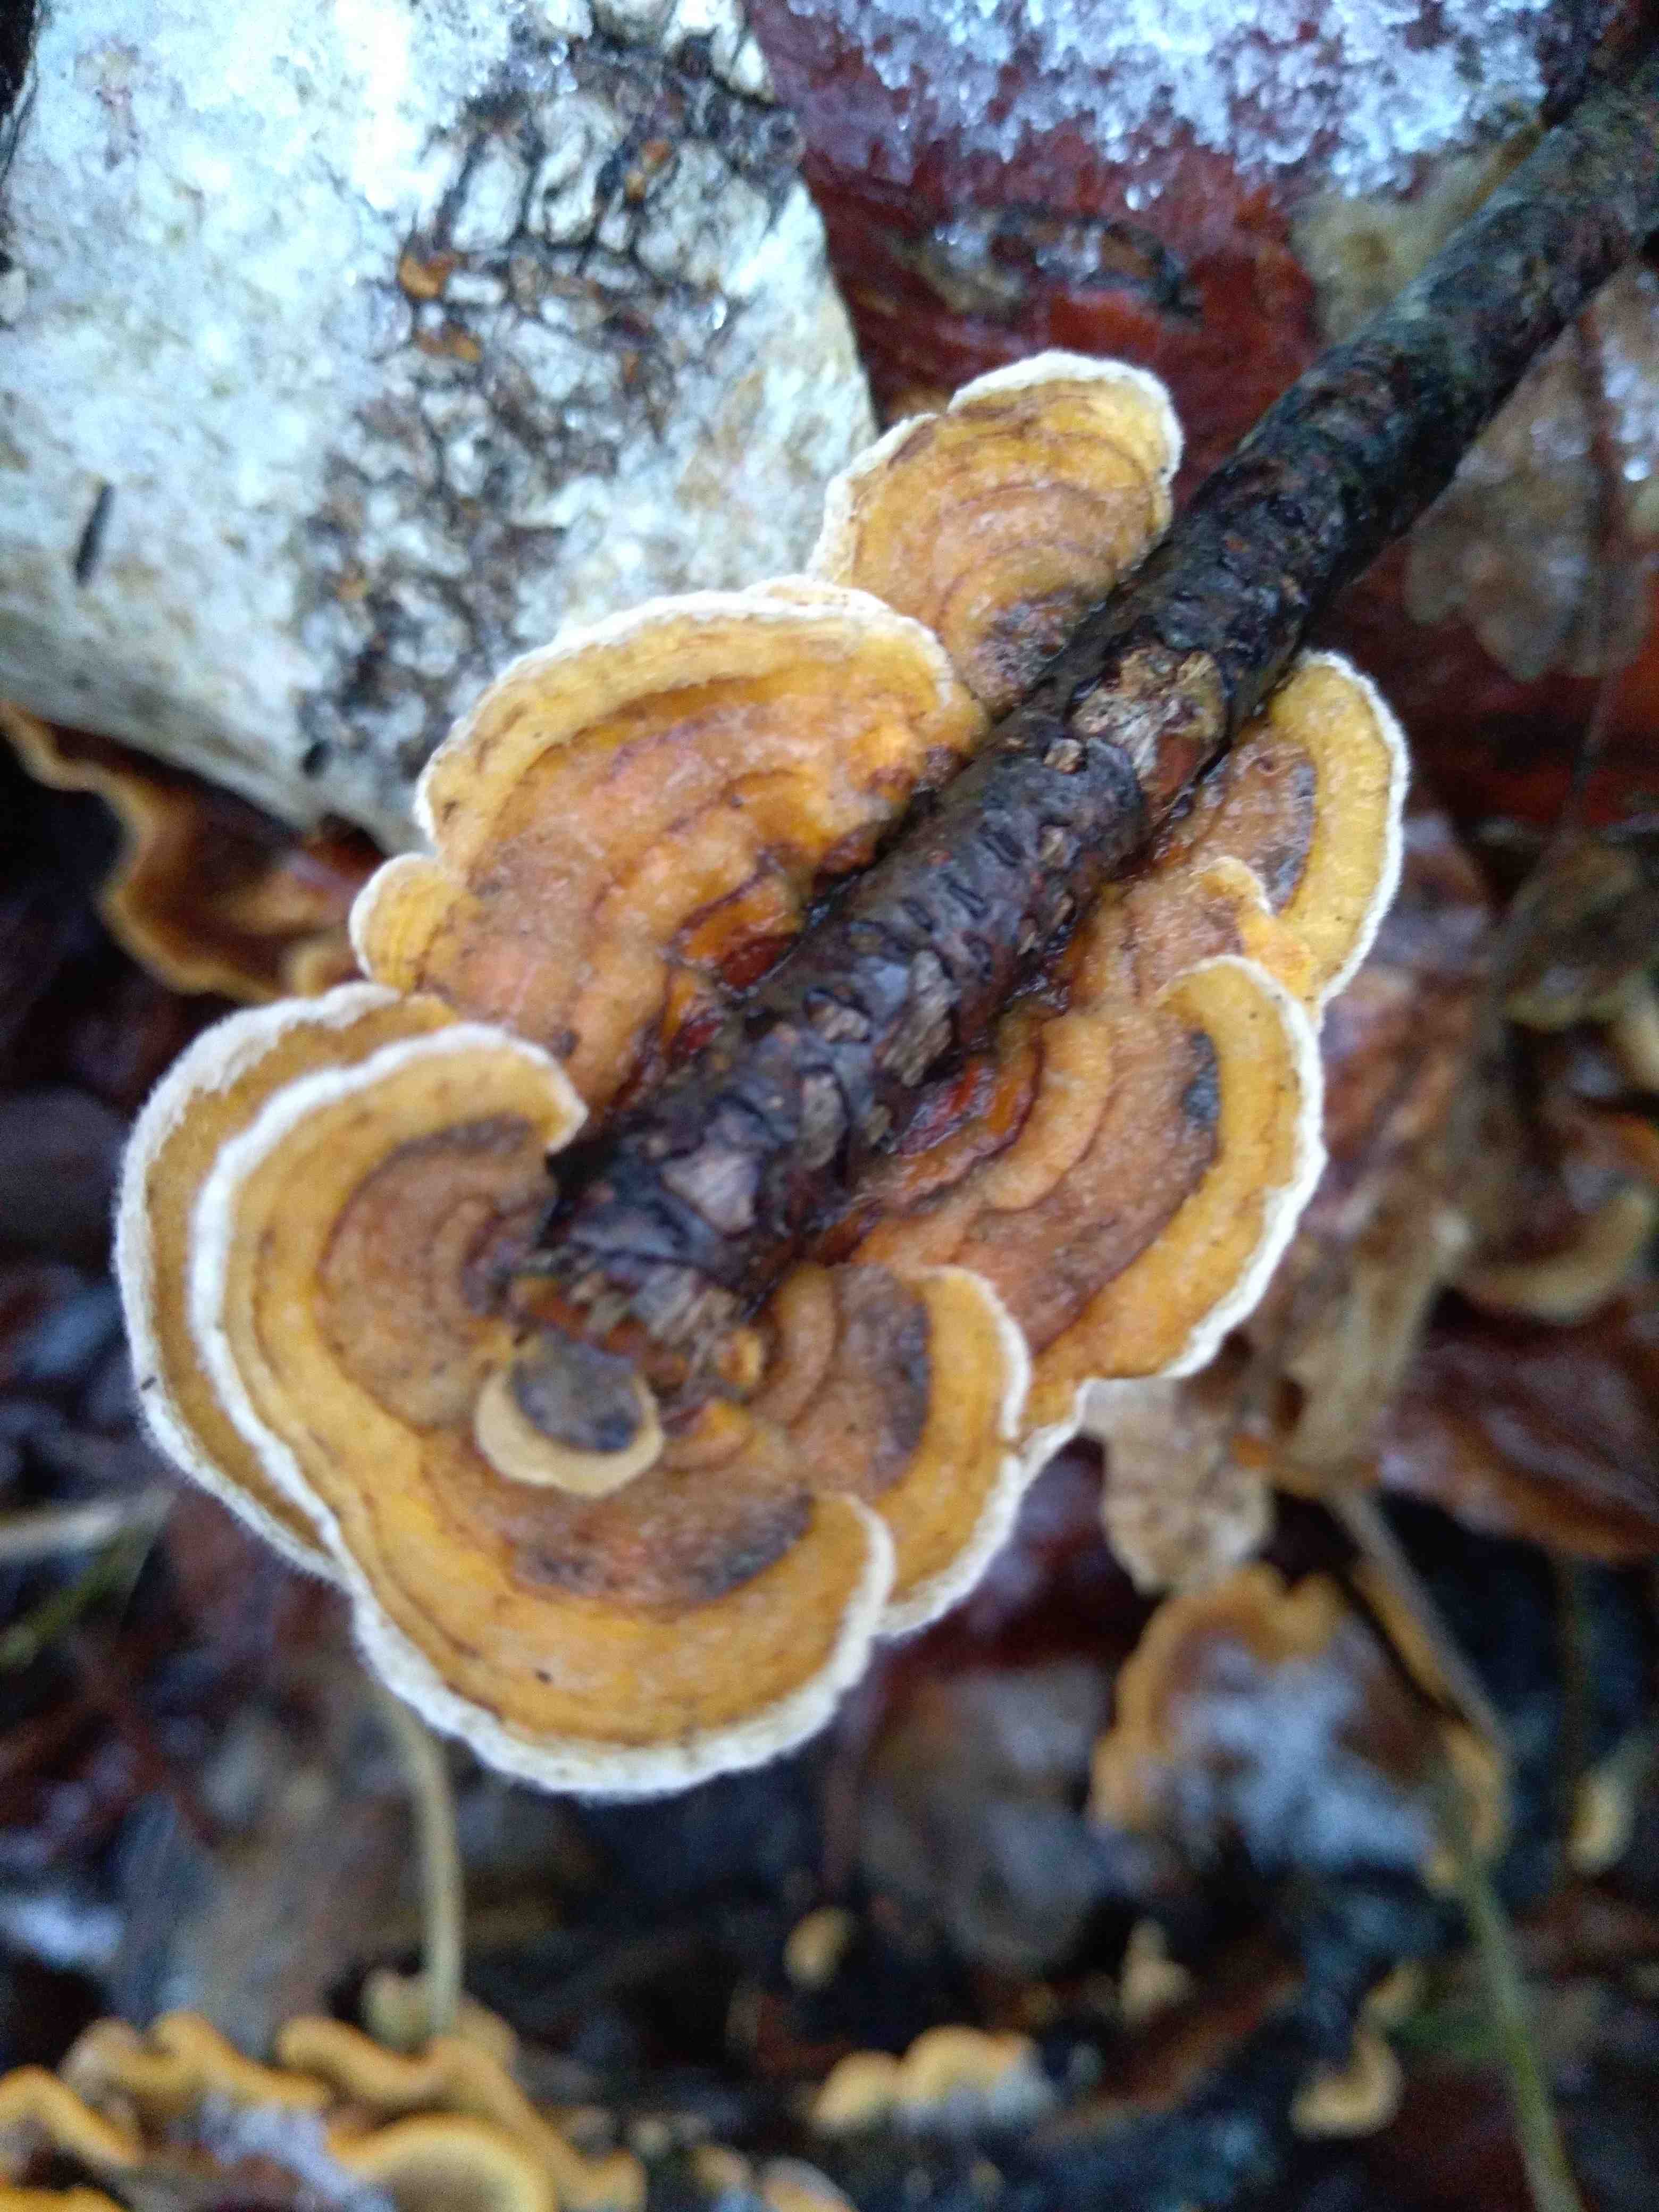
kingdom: Fungi
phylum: Basidiomycota
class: Agaricomycetes
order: Russulales
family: Stereaceae
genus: Stereum
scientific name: Stereum hirsutum
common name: håret lædersvamp
